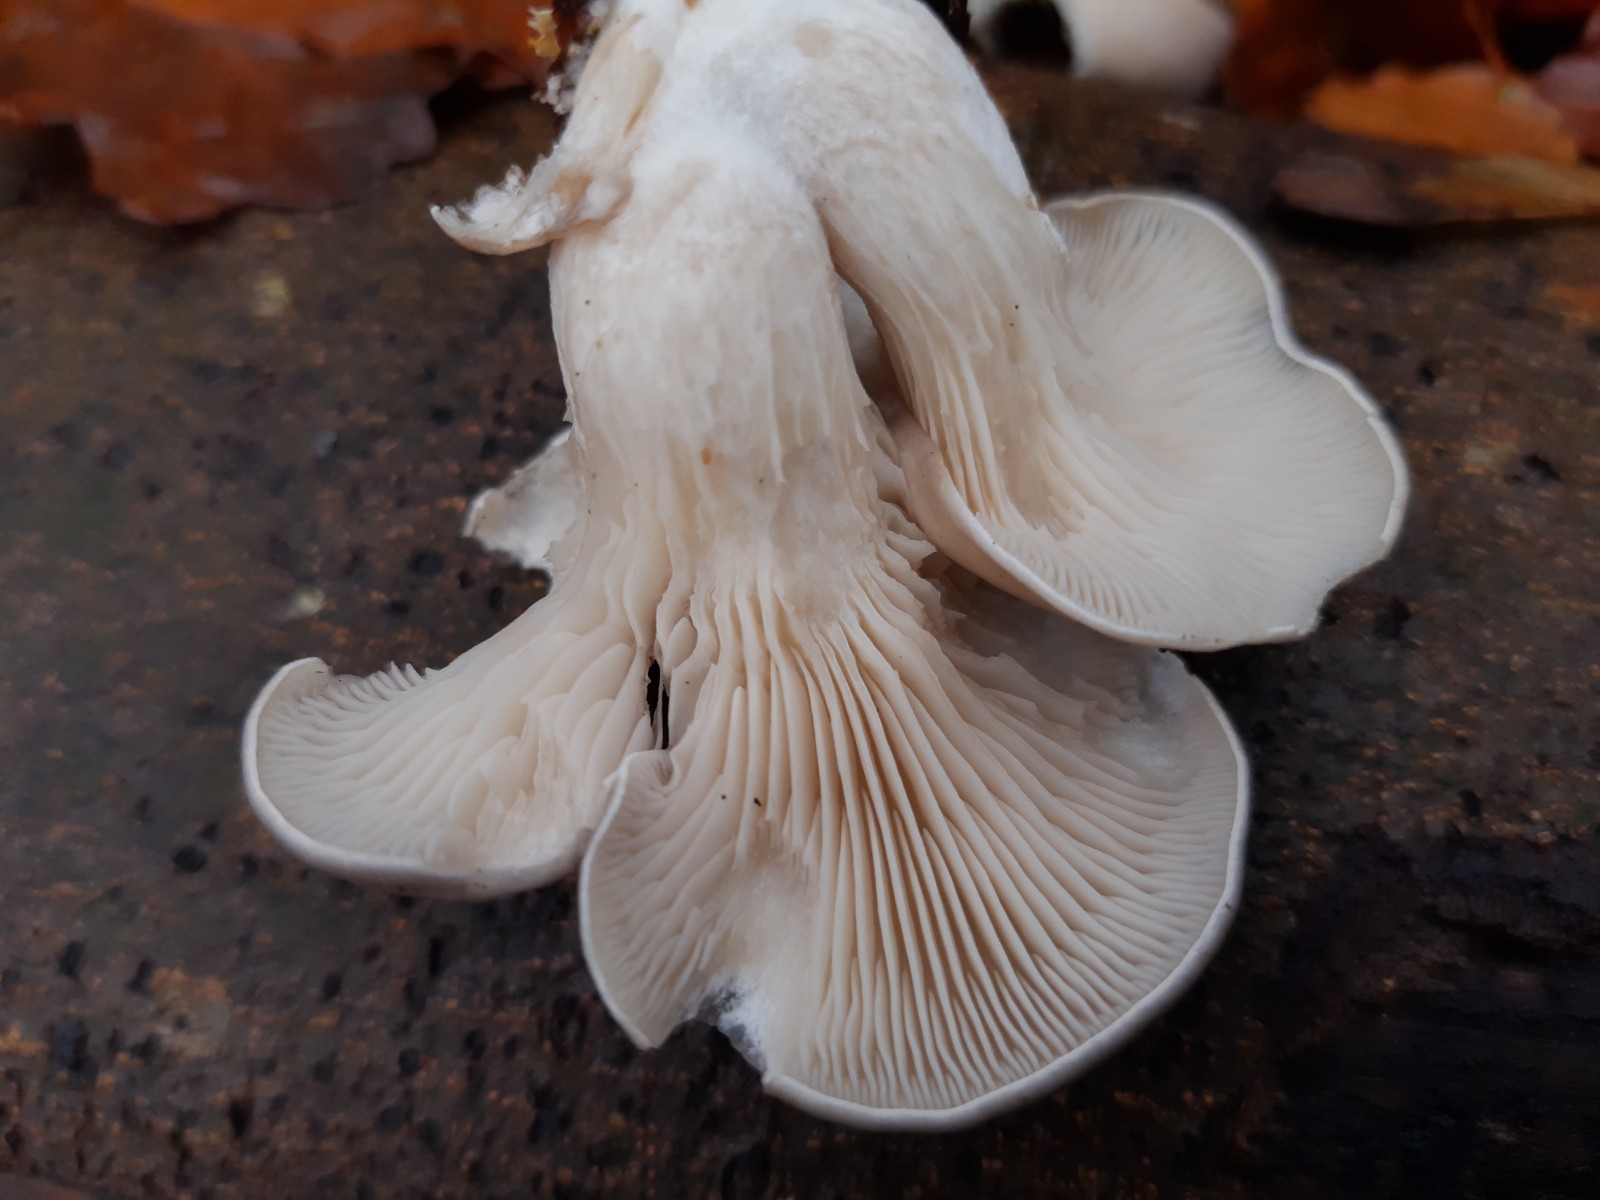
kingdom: Fungi
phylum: Basidiomycota
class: Agaricomycetes
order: Agaricales
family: Pleurotaceae
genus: Pleurotus
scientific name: Pleurotus ostreatus
